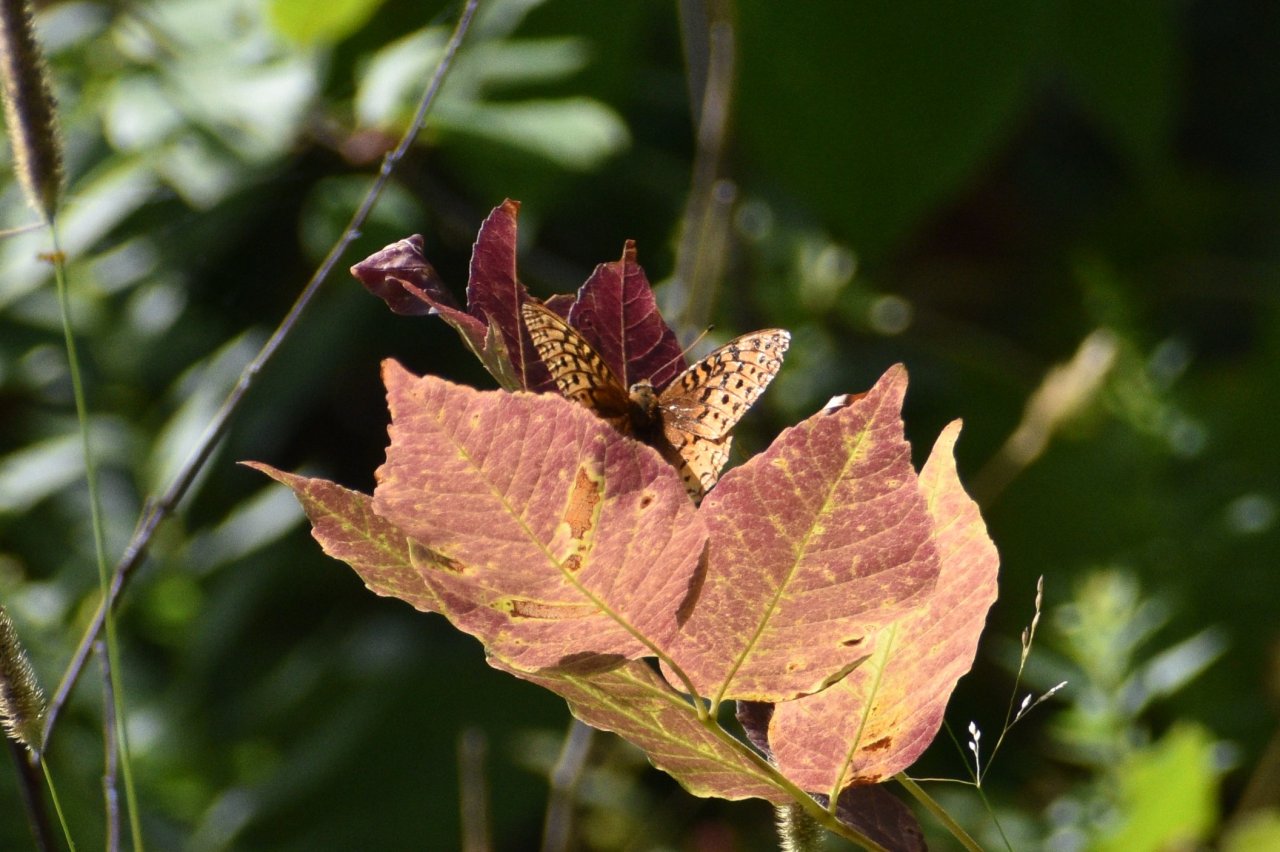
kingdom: Animalia
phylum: Arthropoda
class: Insecta
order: Lepidoptera
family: Nymphalidae
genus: Speyeria
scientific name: Speyeria cybele
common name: Great Spangled Fritillary
